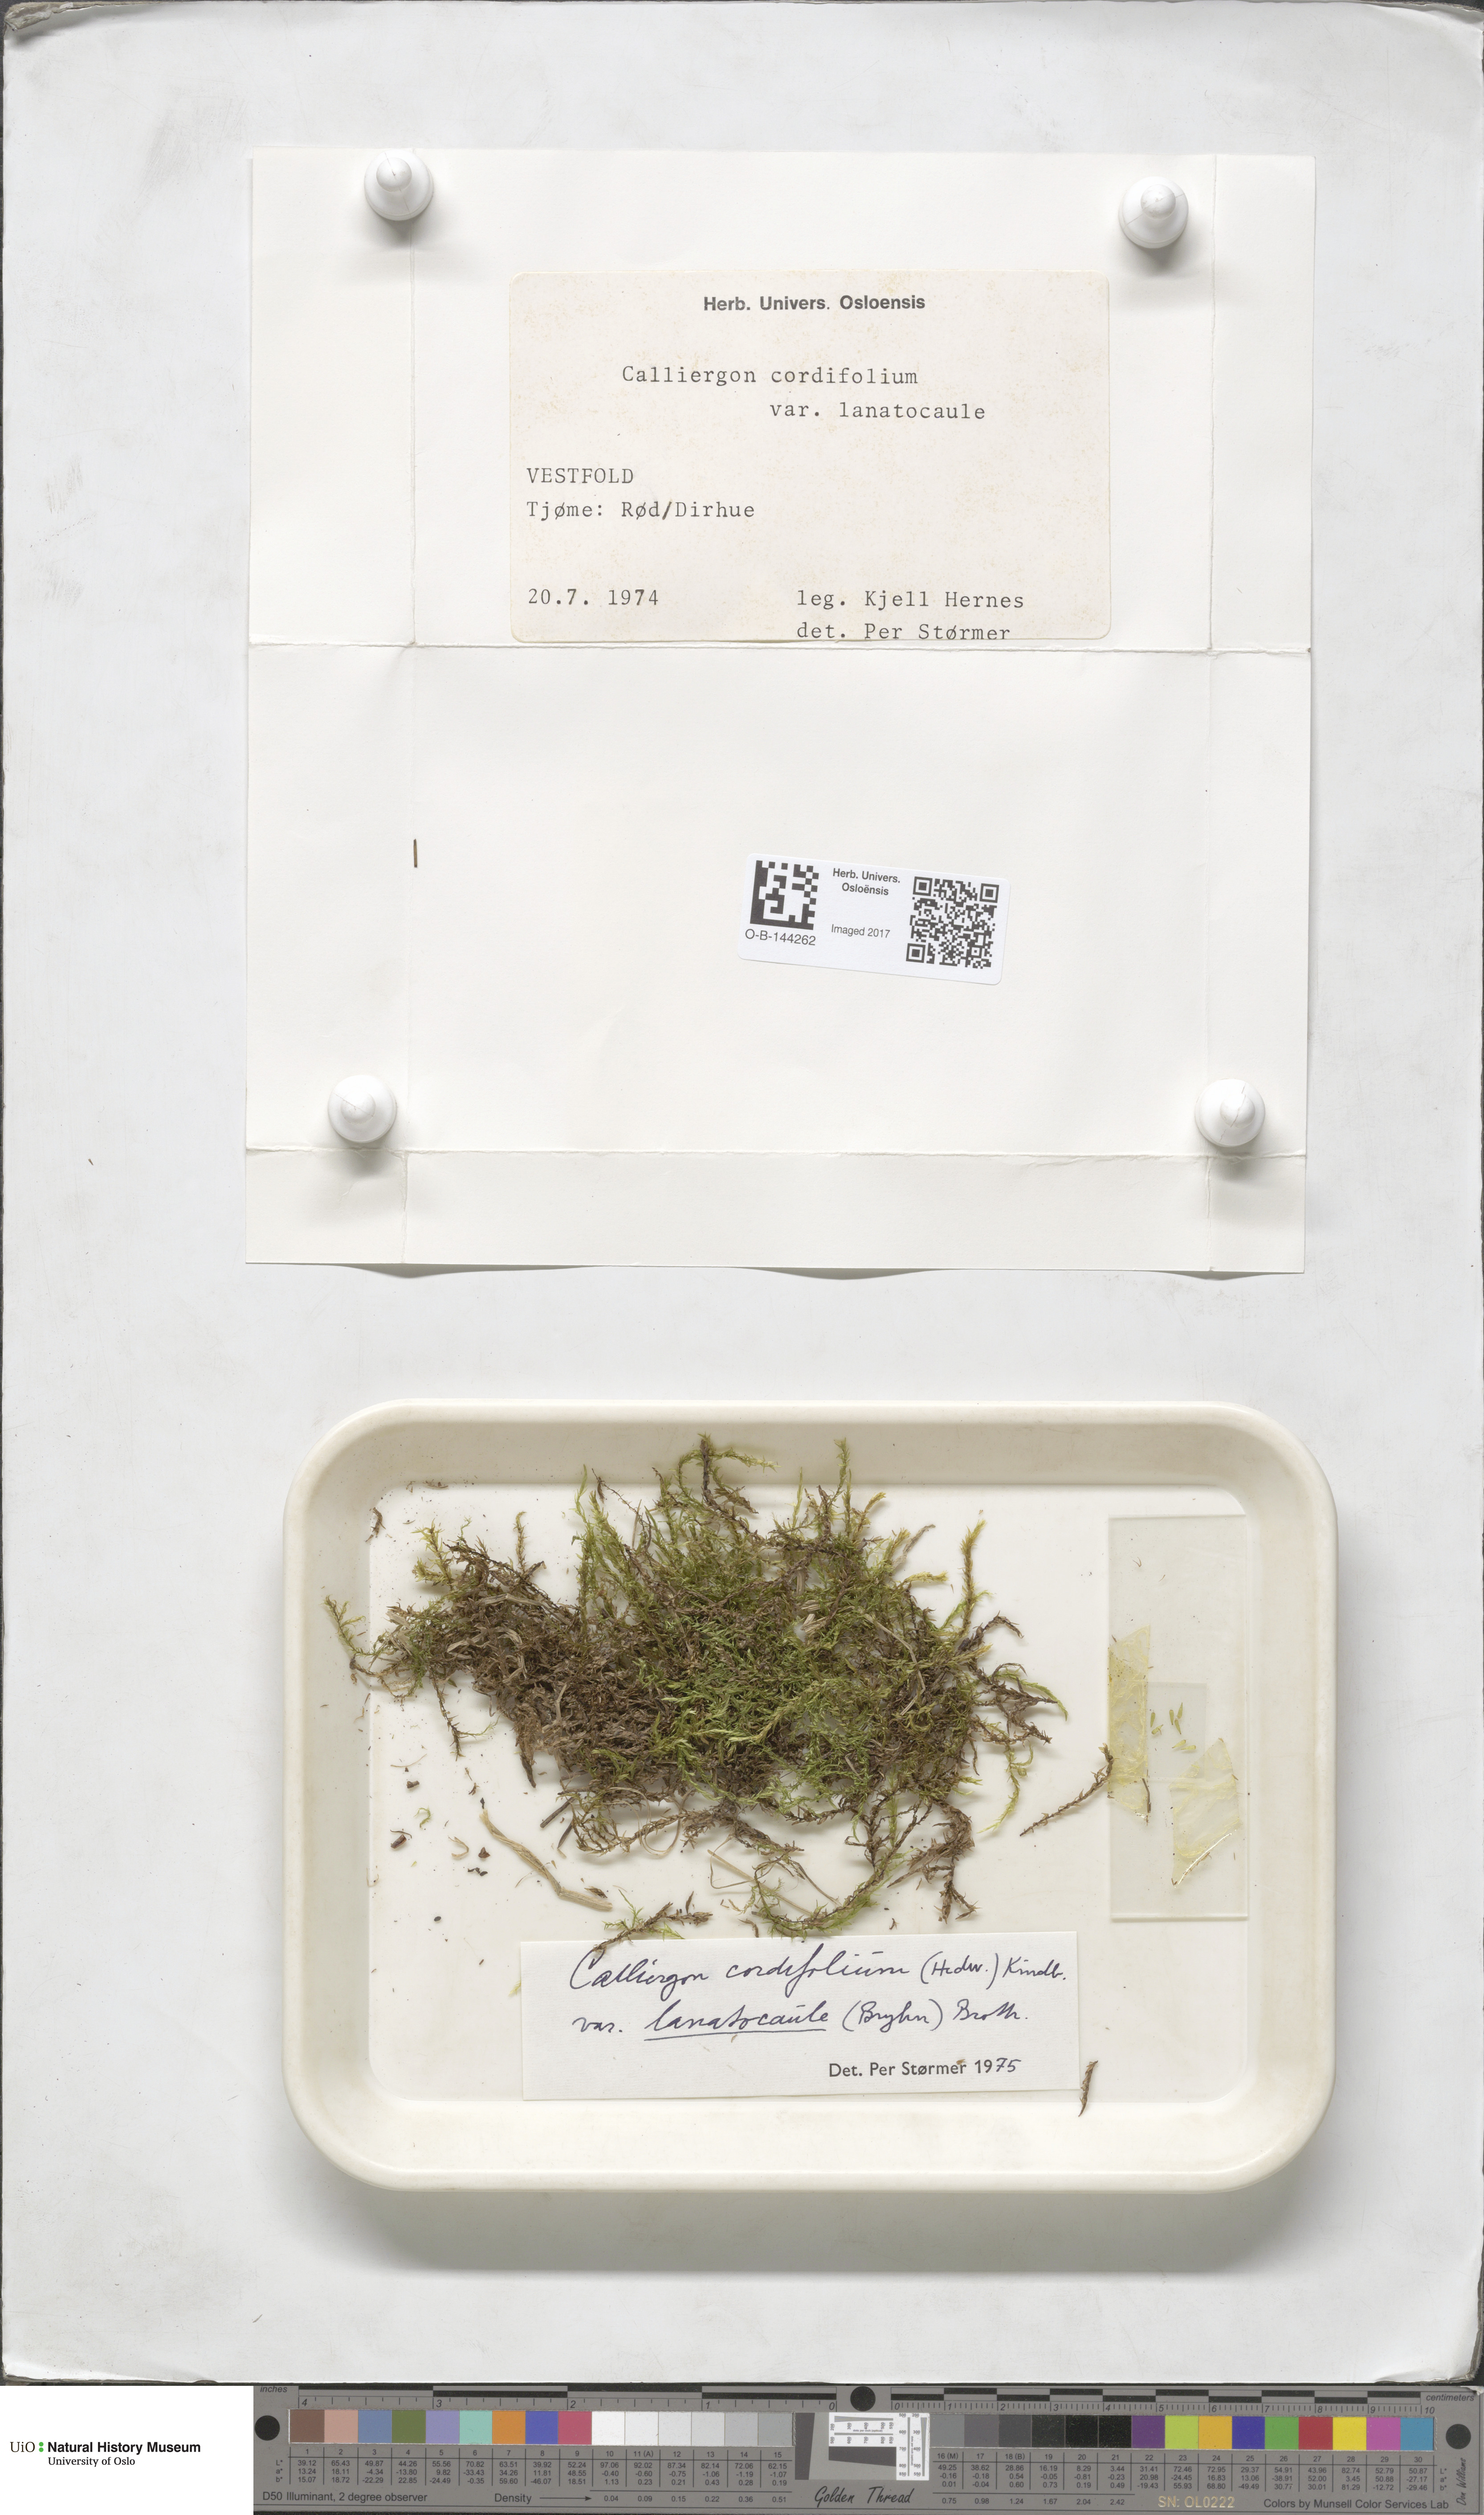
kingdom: Plantae
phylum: Bryophyta
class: Bryopsida
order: Hypnales
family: Calliergonaceae
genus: Calliergon
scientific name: Calliergon cordifolium
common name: Heart-leaved spear moss
